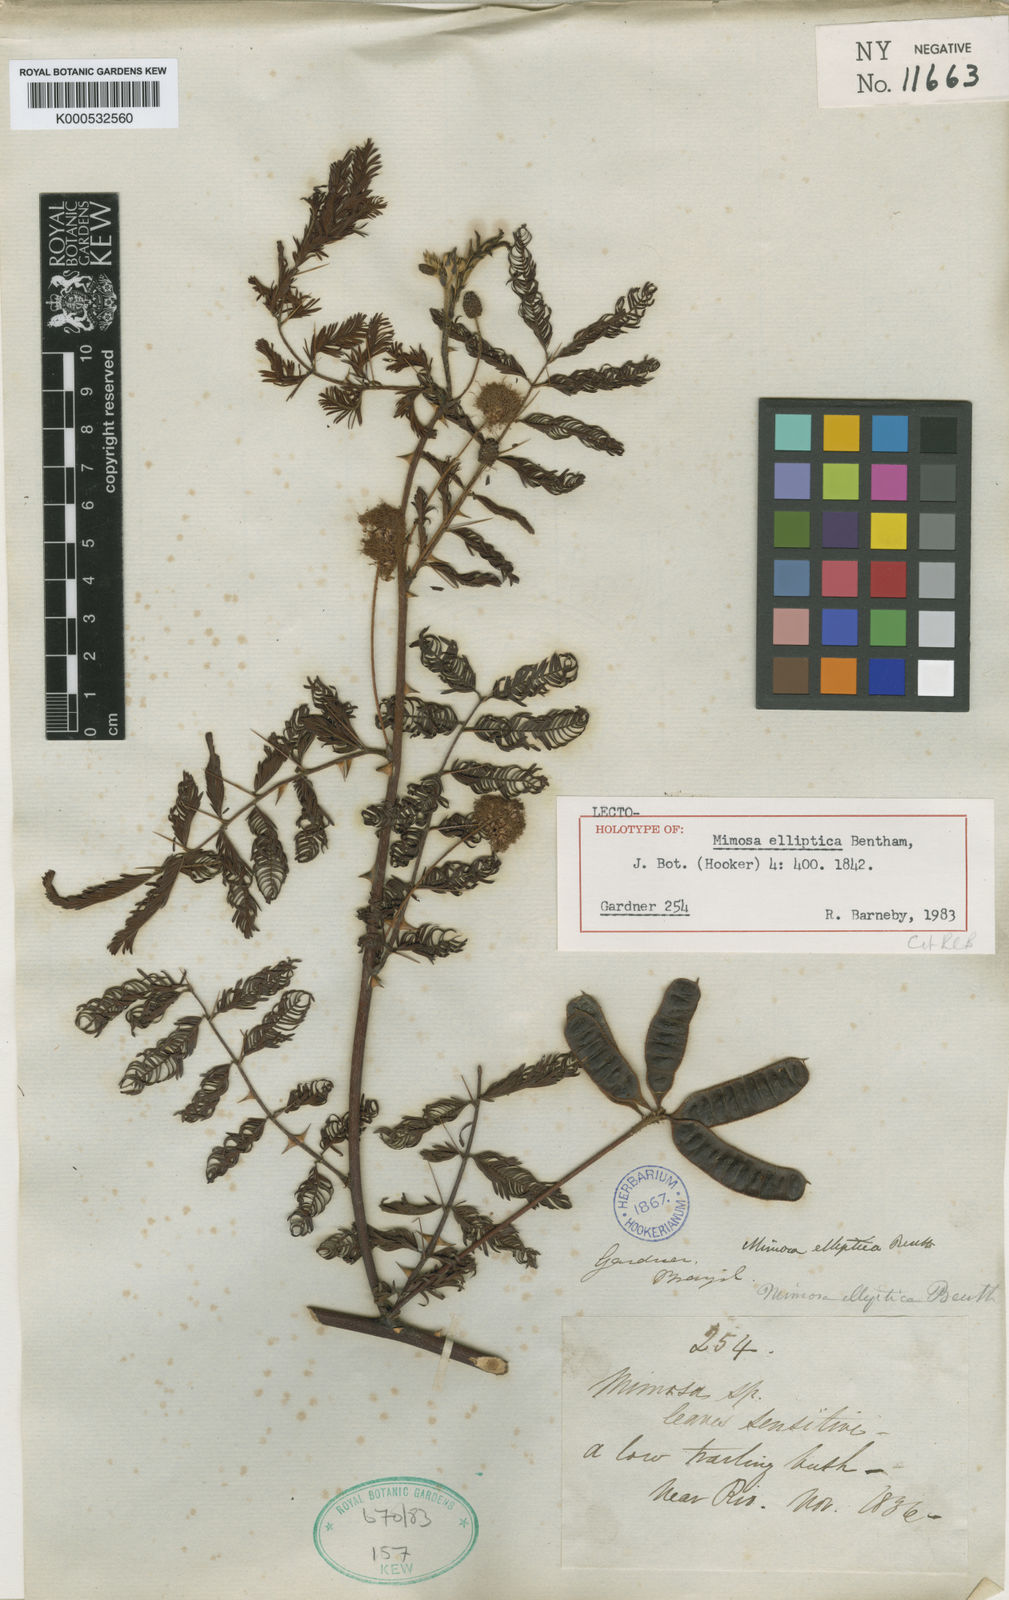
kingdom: Plantae
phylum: Tracheophyta
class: Magnoliopsida
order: Fabales
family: Fabaceae
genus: Mimosa
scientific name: Mimosa foliolosa
